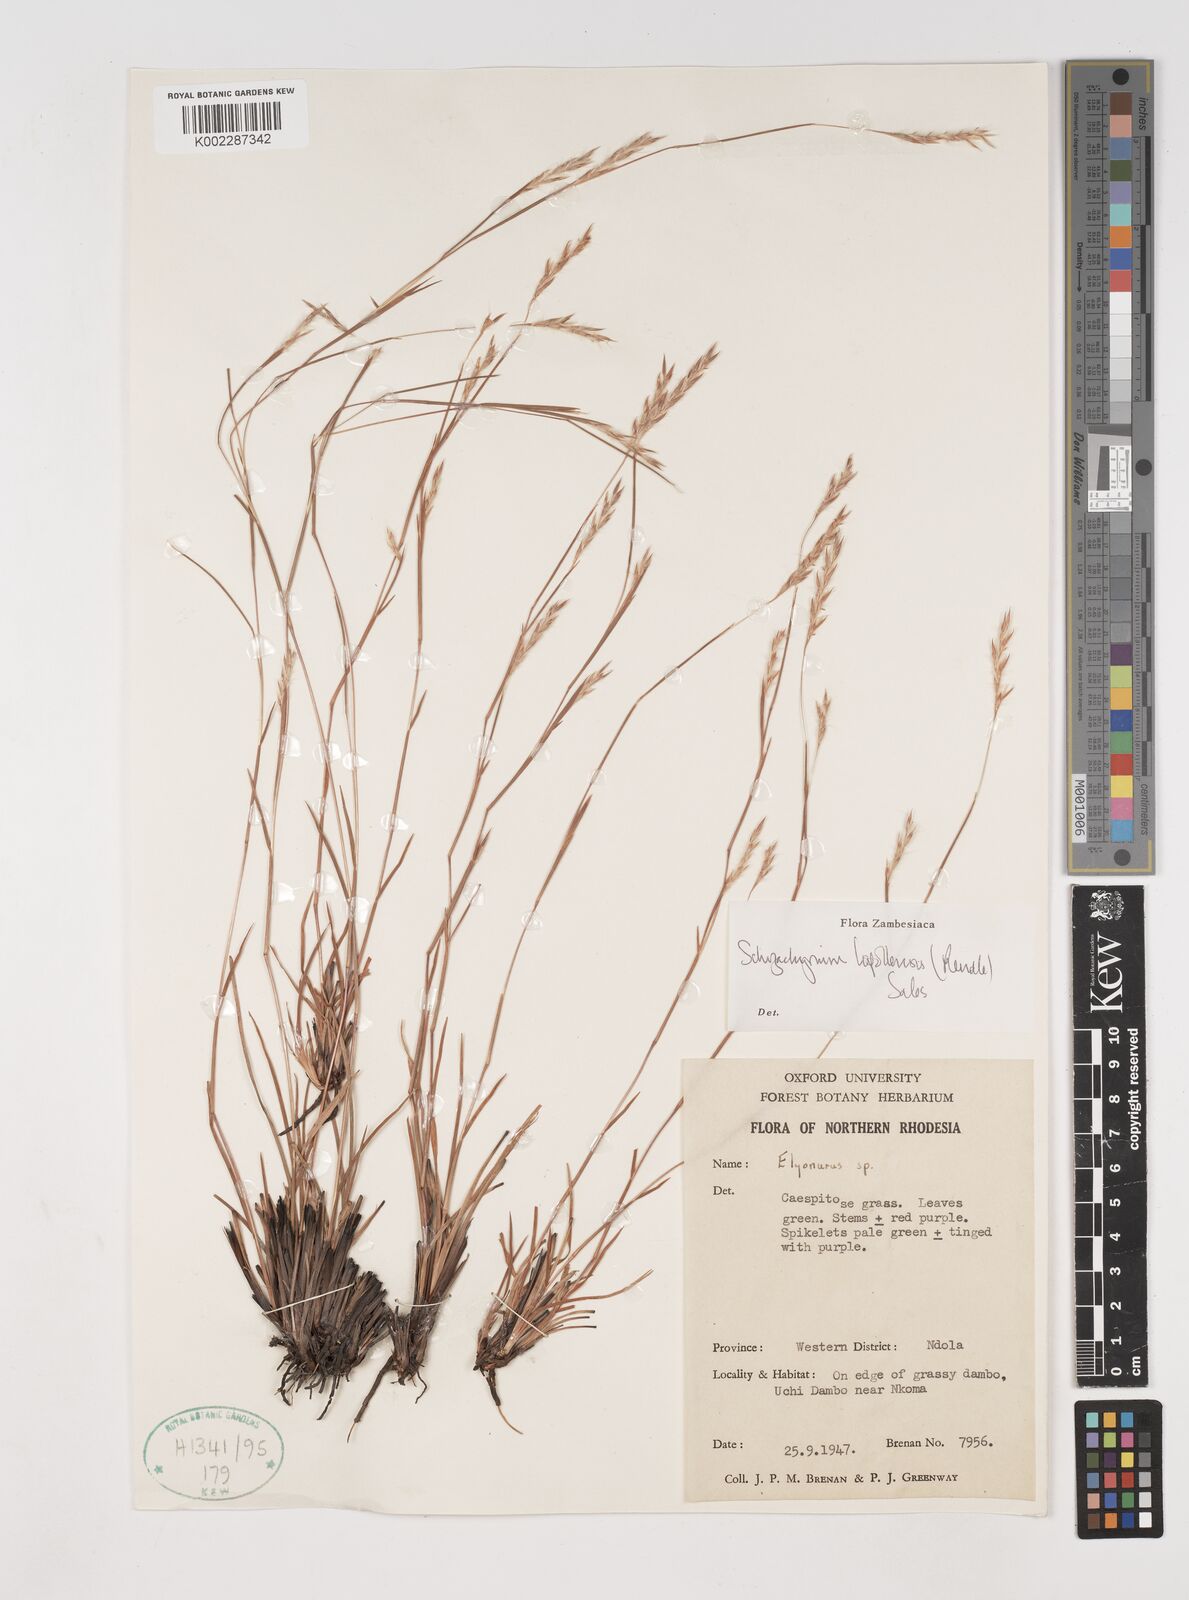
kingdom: Plantae
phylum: Tracheophyta
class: Liliopsida
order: Poales
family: Poaceae
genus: Andropogon
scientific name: Andropogon schweinfurthii
